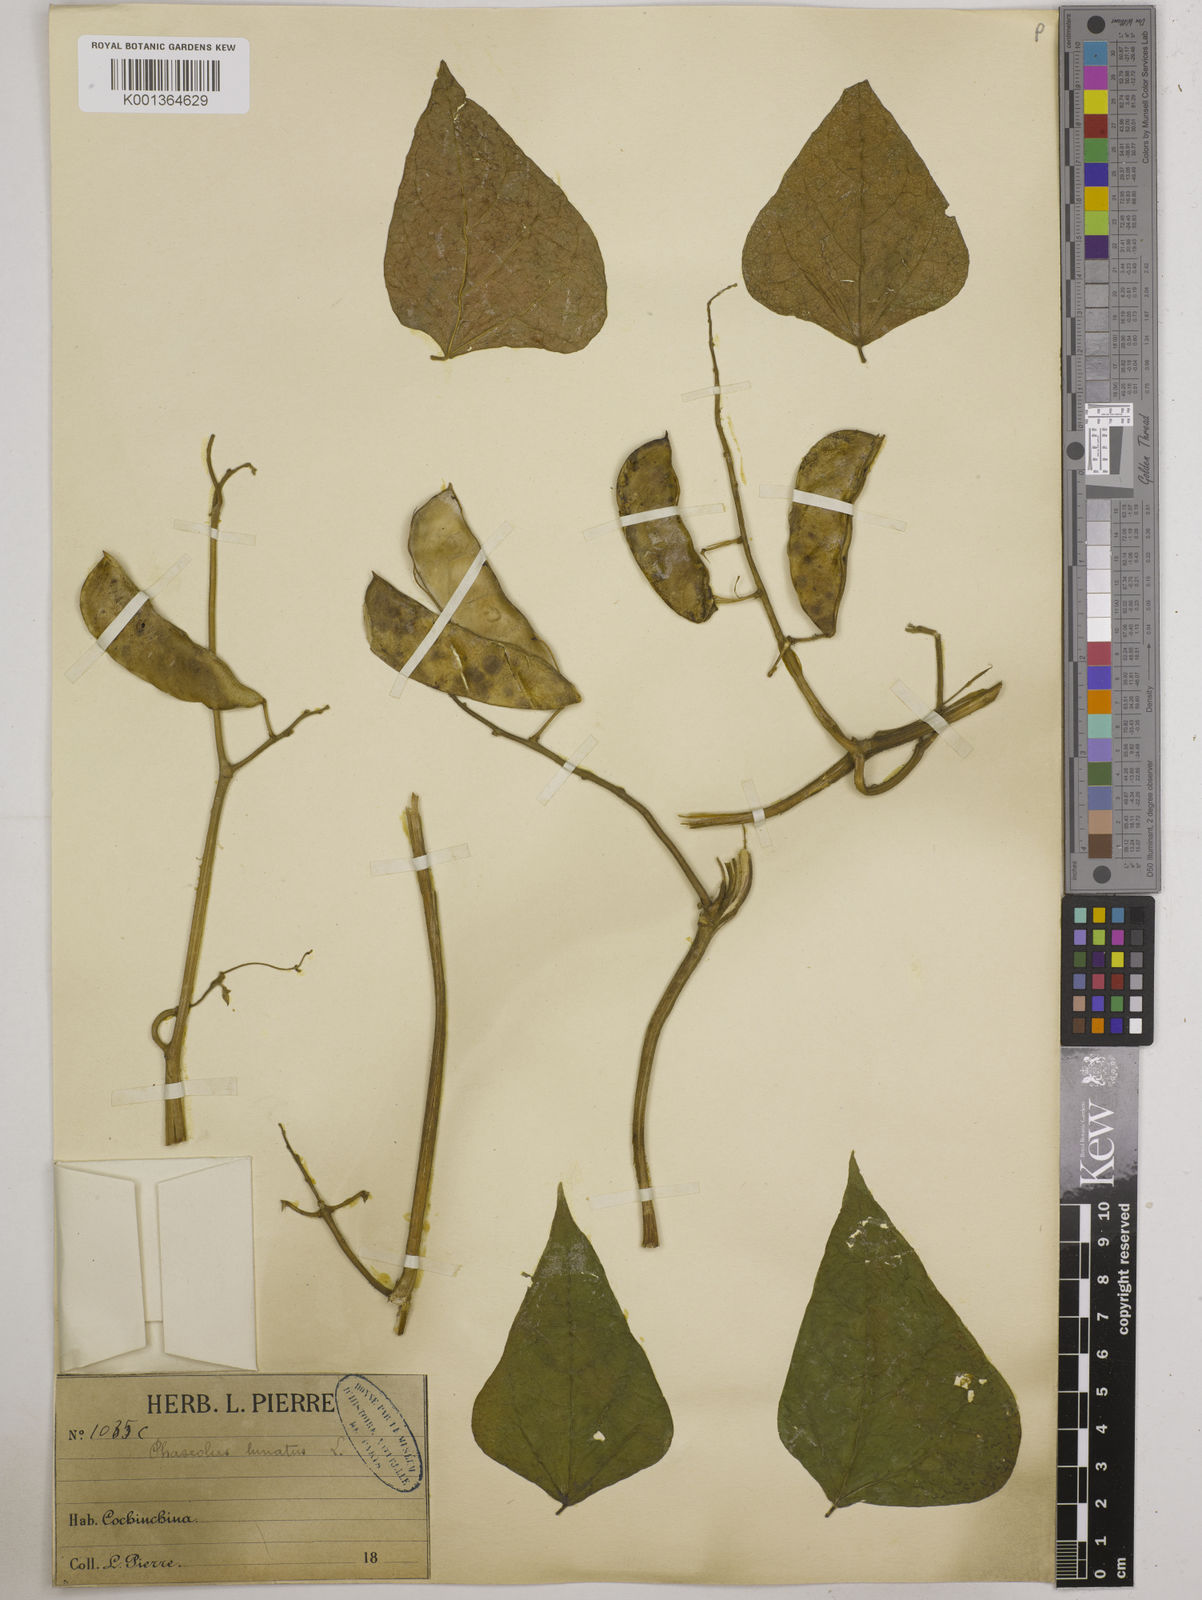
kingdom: Plantae
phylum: Tracheophyta
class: Magnoliopsida
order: Fabales
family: Fabaceae
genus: Phaseolus
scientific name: Phaseolus lunatus
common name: Sieva bean
